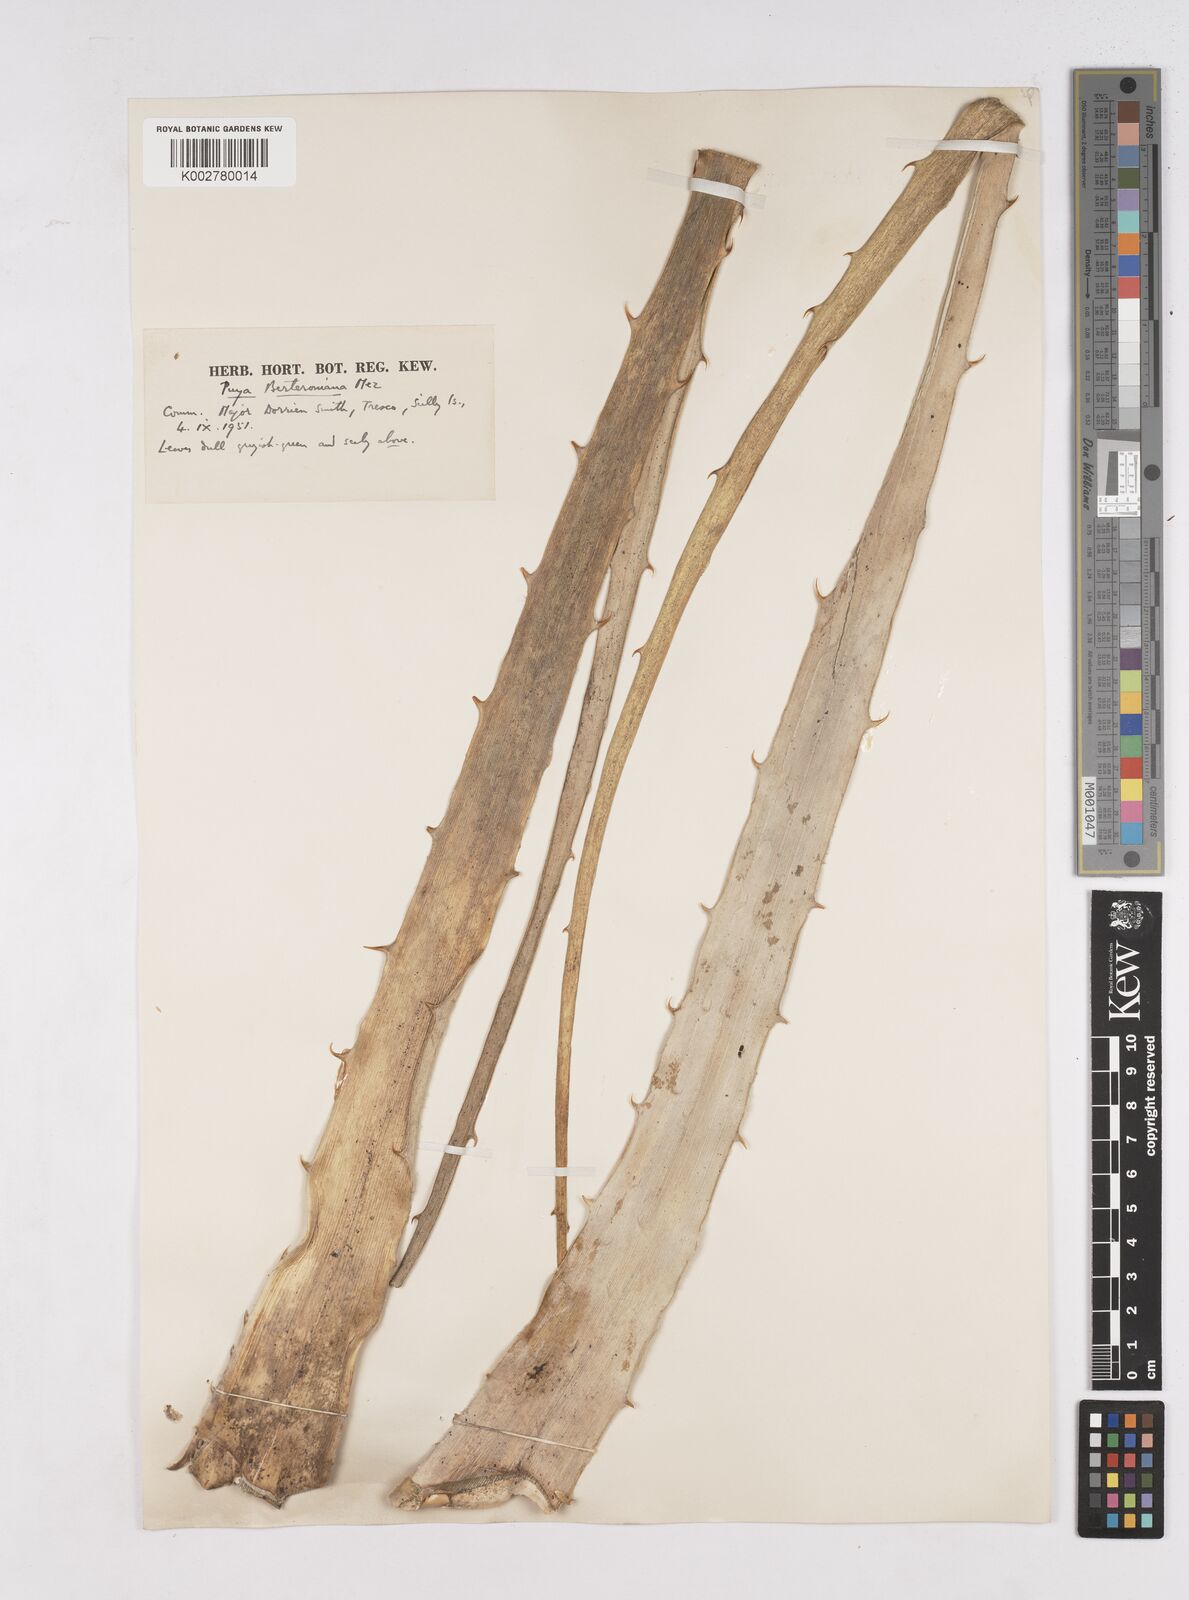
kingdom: Plantae
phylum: Tracheophyta
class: Liliopsida
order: Poales
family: Bromeliaceae
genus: Puya
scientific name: Puya berteroniana
